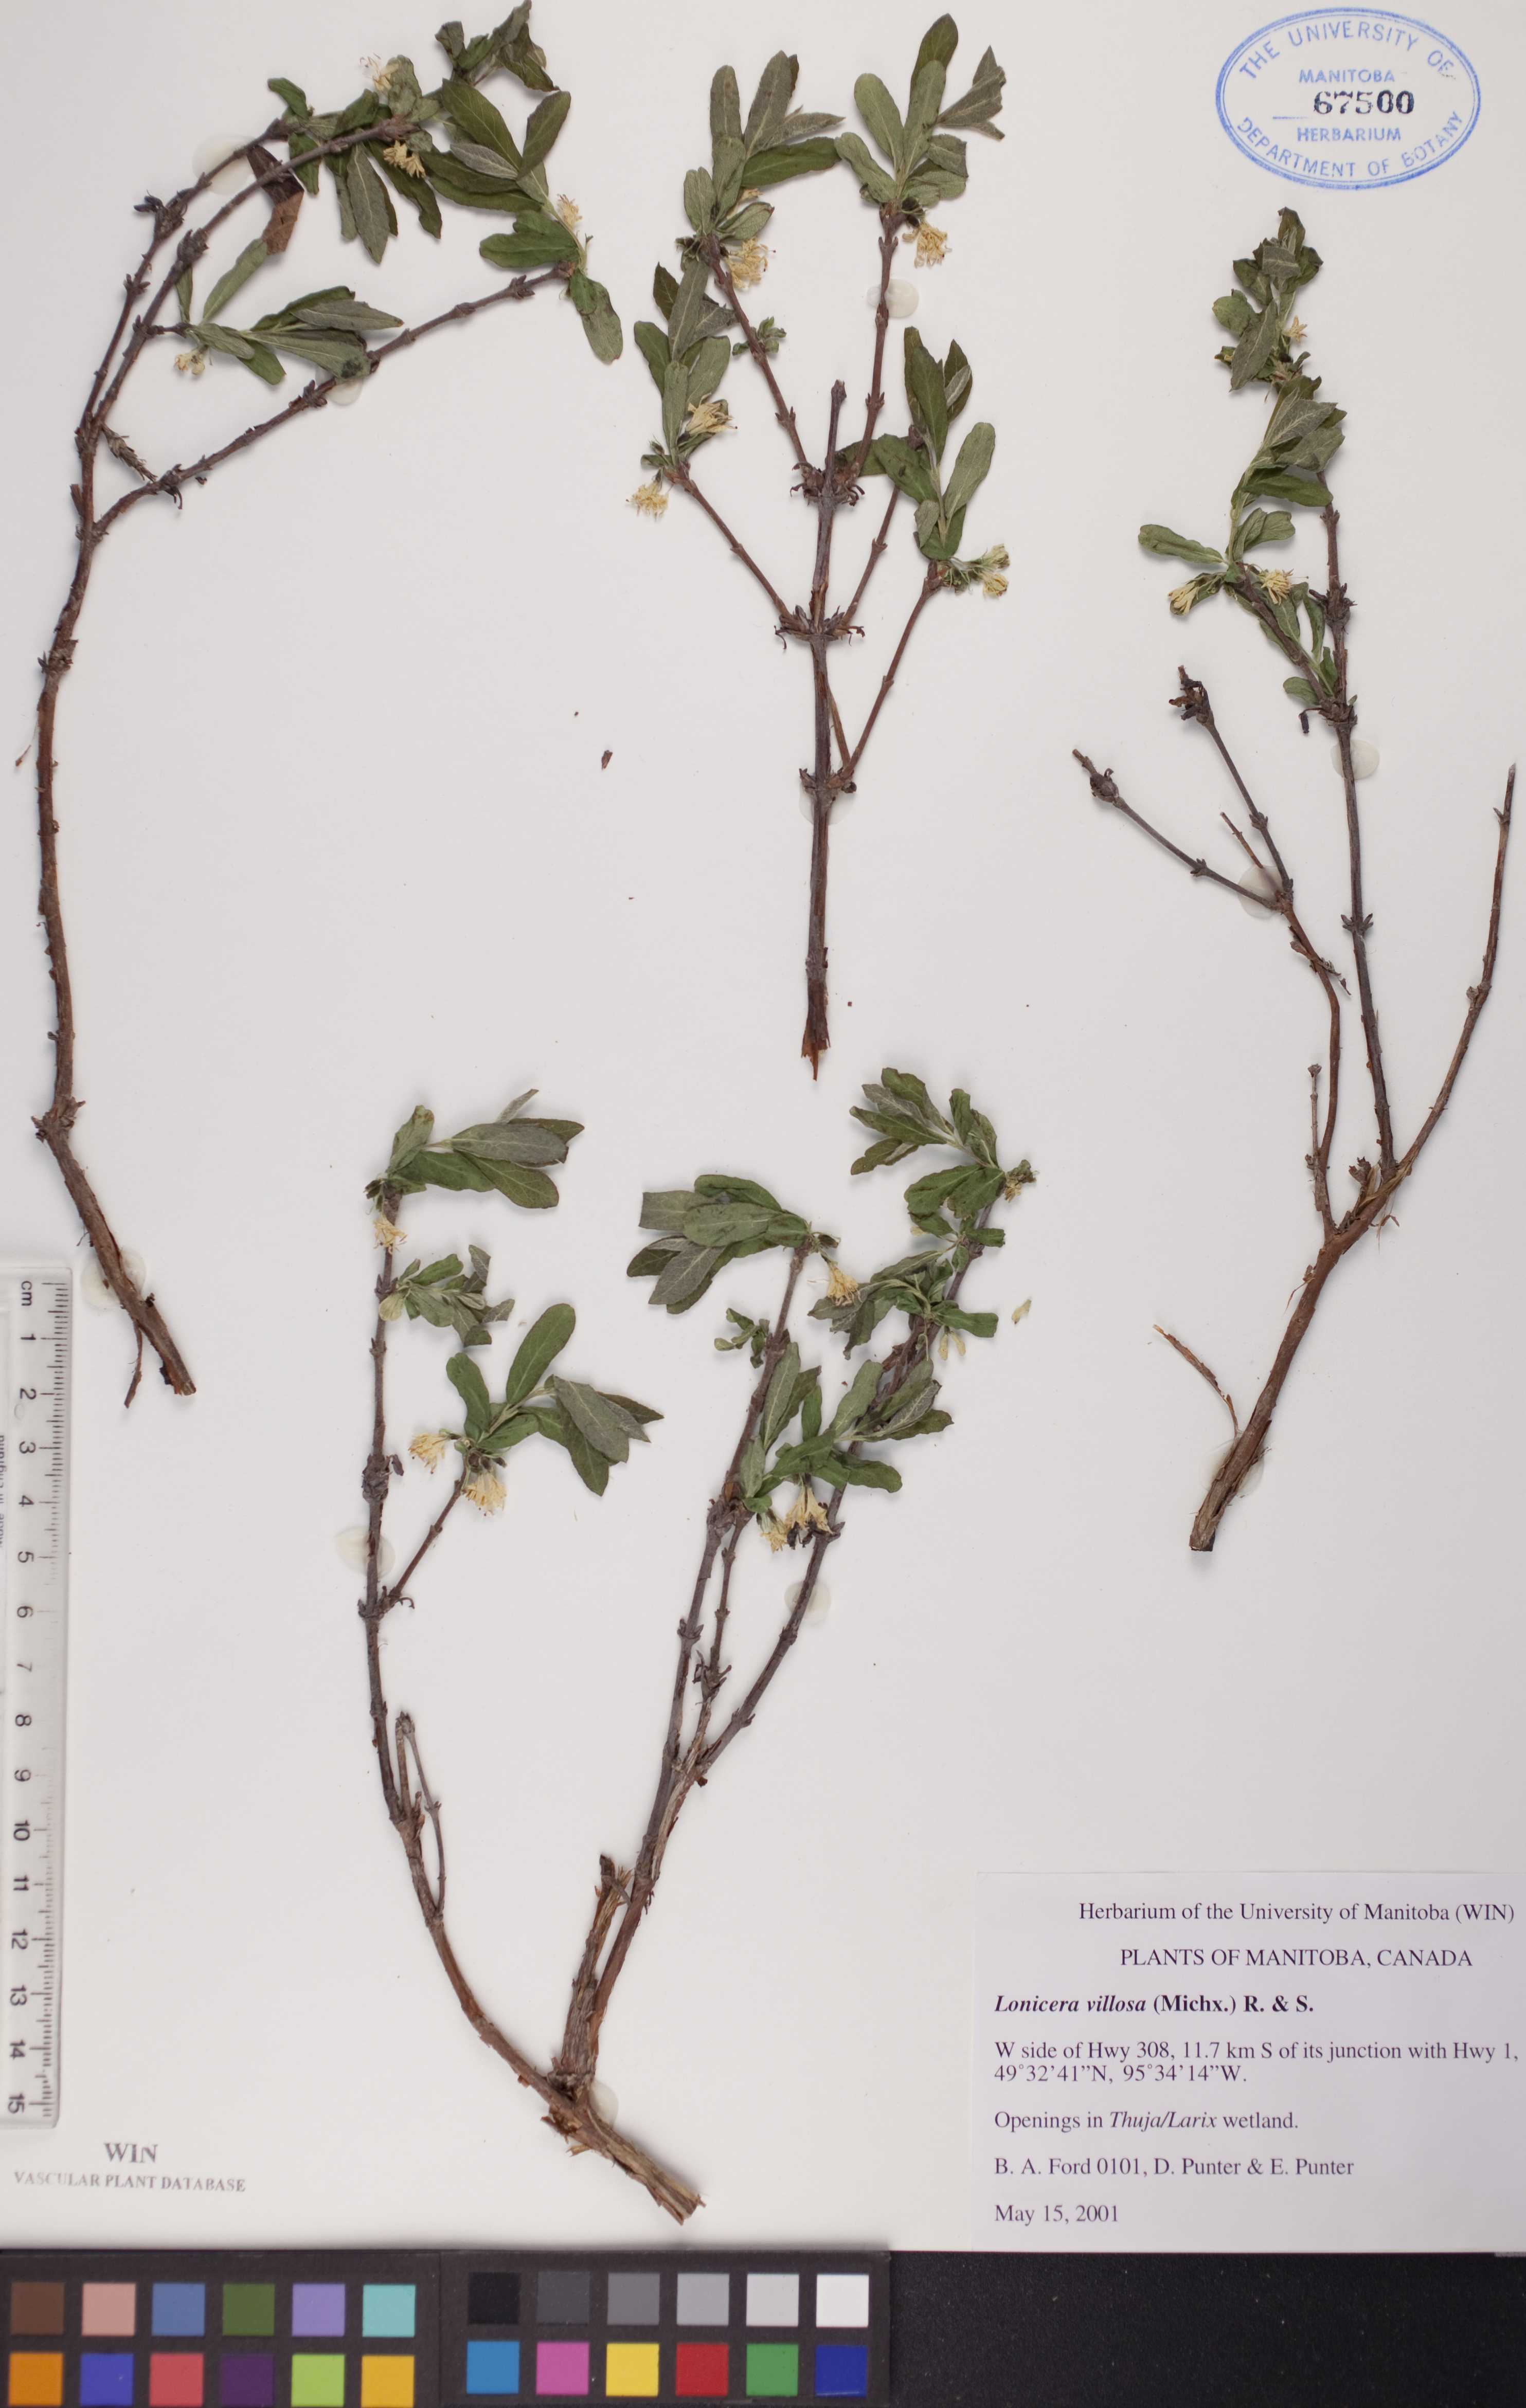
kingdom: Plantae
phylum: Tracheophyta
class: Magnoliopsida
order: Dipsacales
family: Caprifoliaceae
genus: Lonicera
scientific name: Lonicera villosa
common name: Mountain fly-honeysuckle
